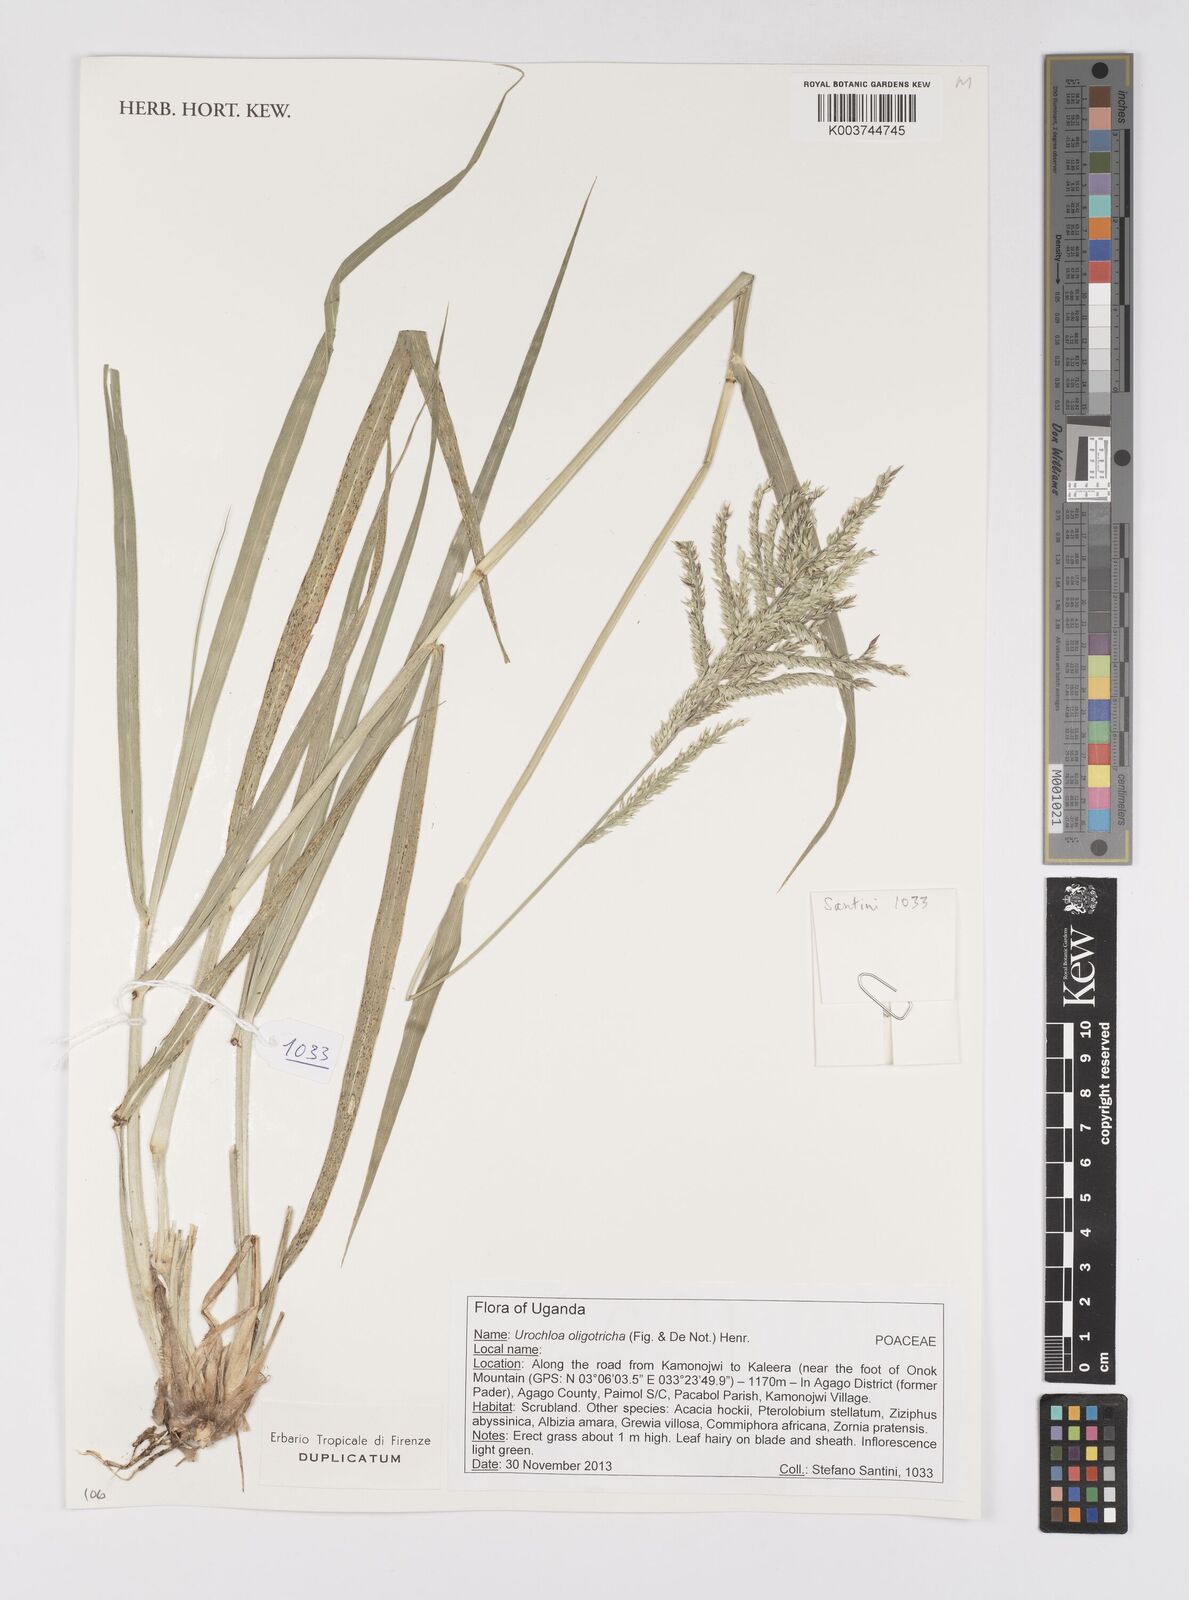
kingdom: Plantae
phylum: Tracheophyta
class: Liliopsida
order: Poales
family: Poaceae
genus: Urochloa
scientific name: Urochloa oligotricha
